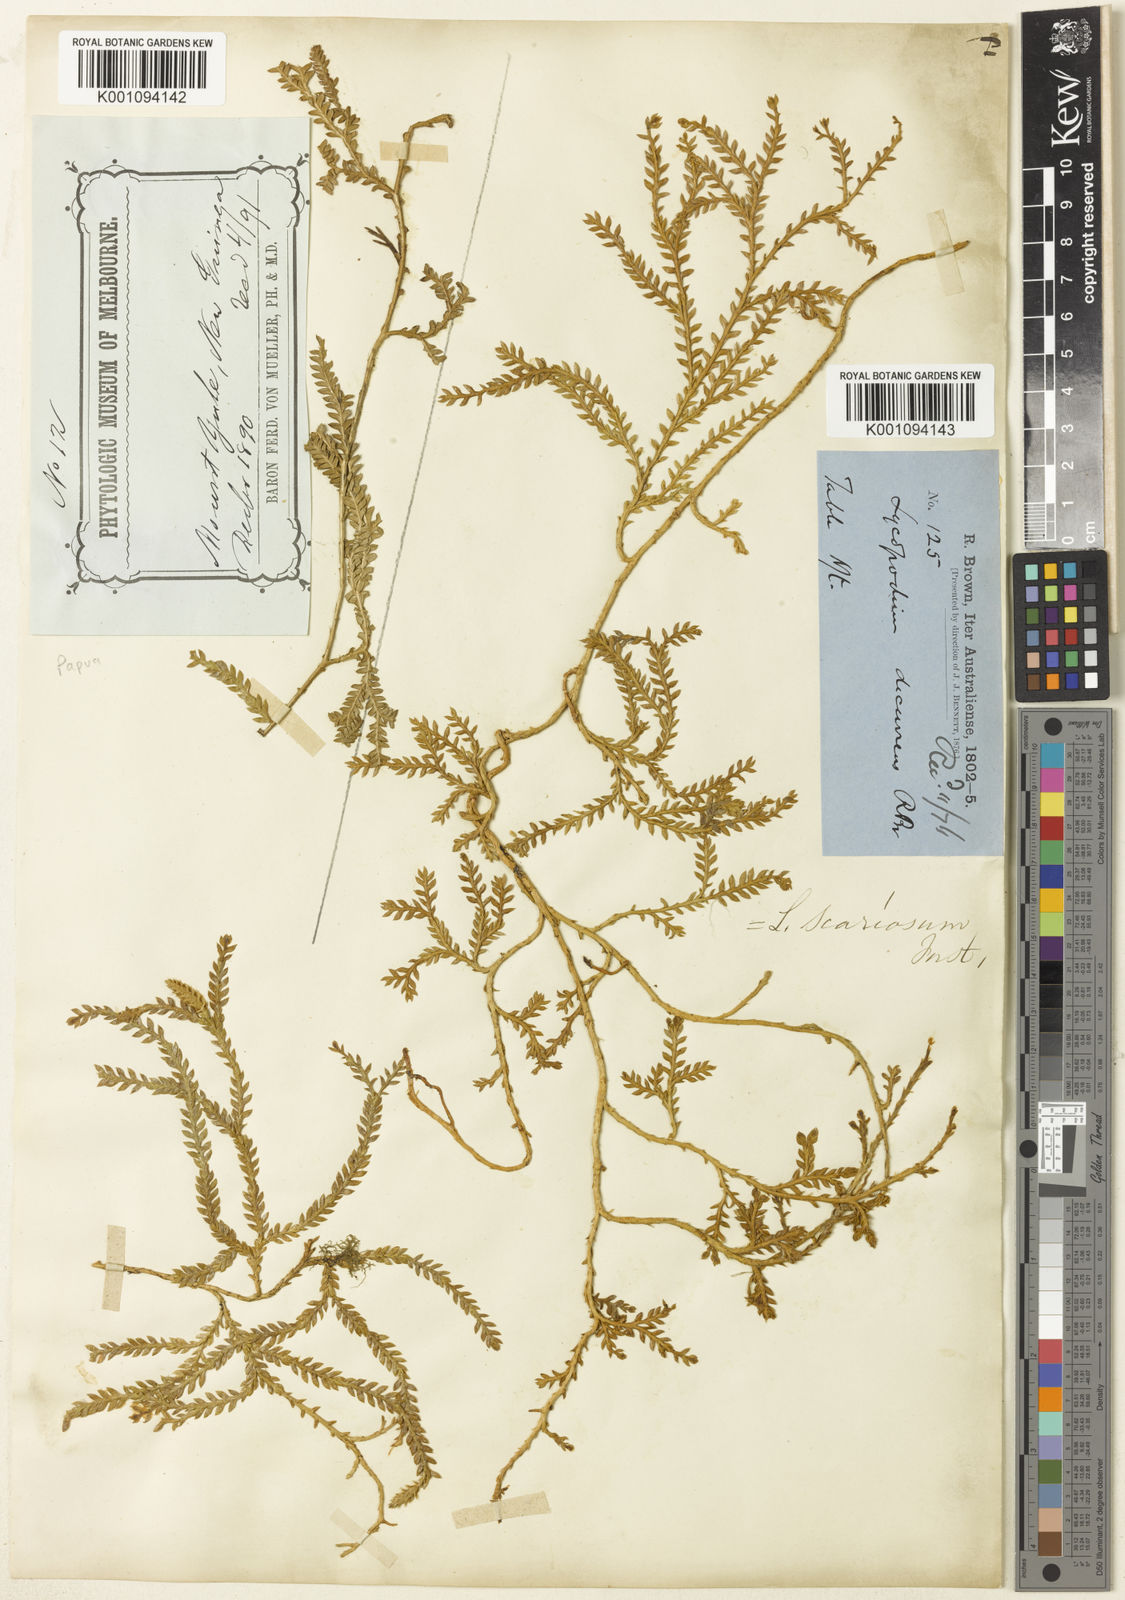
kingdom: Plantae
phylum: Tracheophyta
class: Lycopodiopsida
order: Lycopodiales
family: Lycopodiaceae
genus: Diphasium
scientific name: Diphasium scariosum
